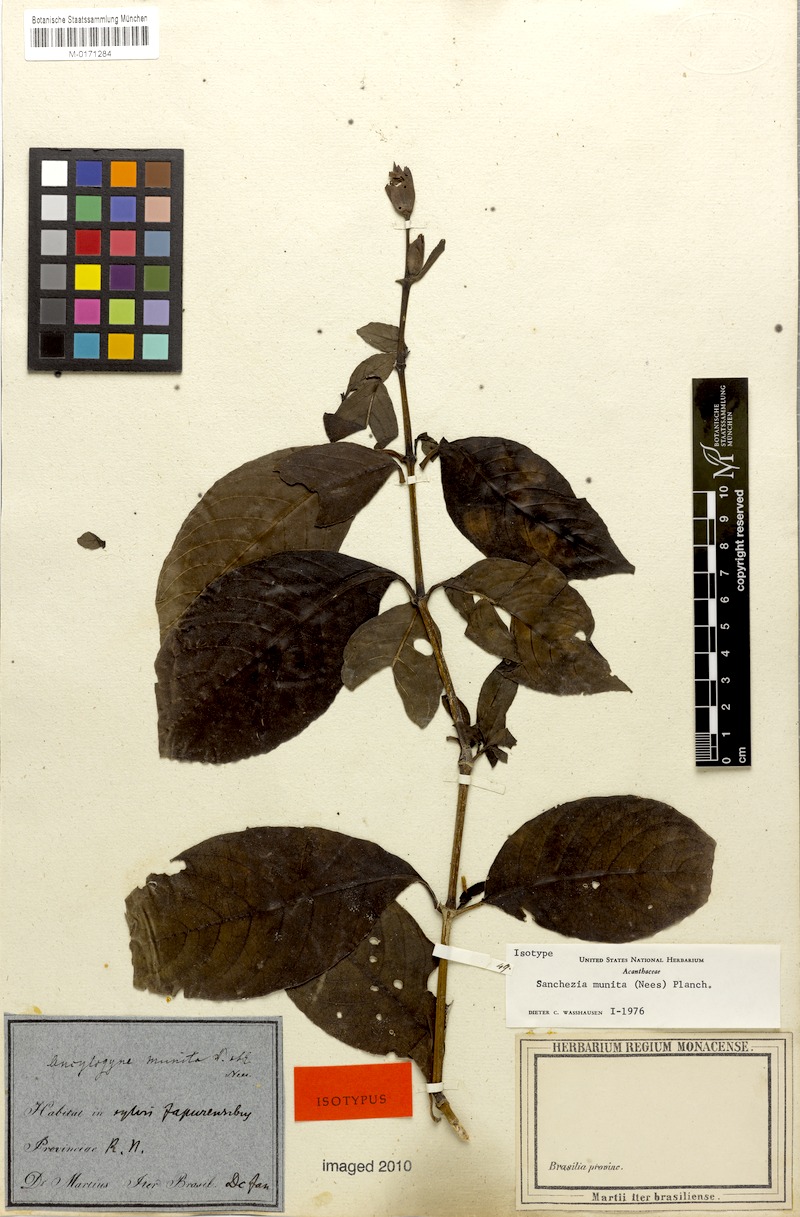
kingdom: Plantae
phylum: Tracheophyta
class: Magnoliopsida
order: Lamiales
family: Acanthaceae
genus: Sanchezia
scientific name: Sanchezia munita
